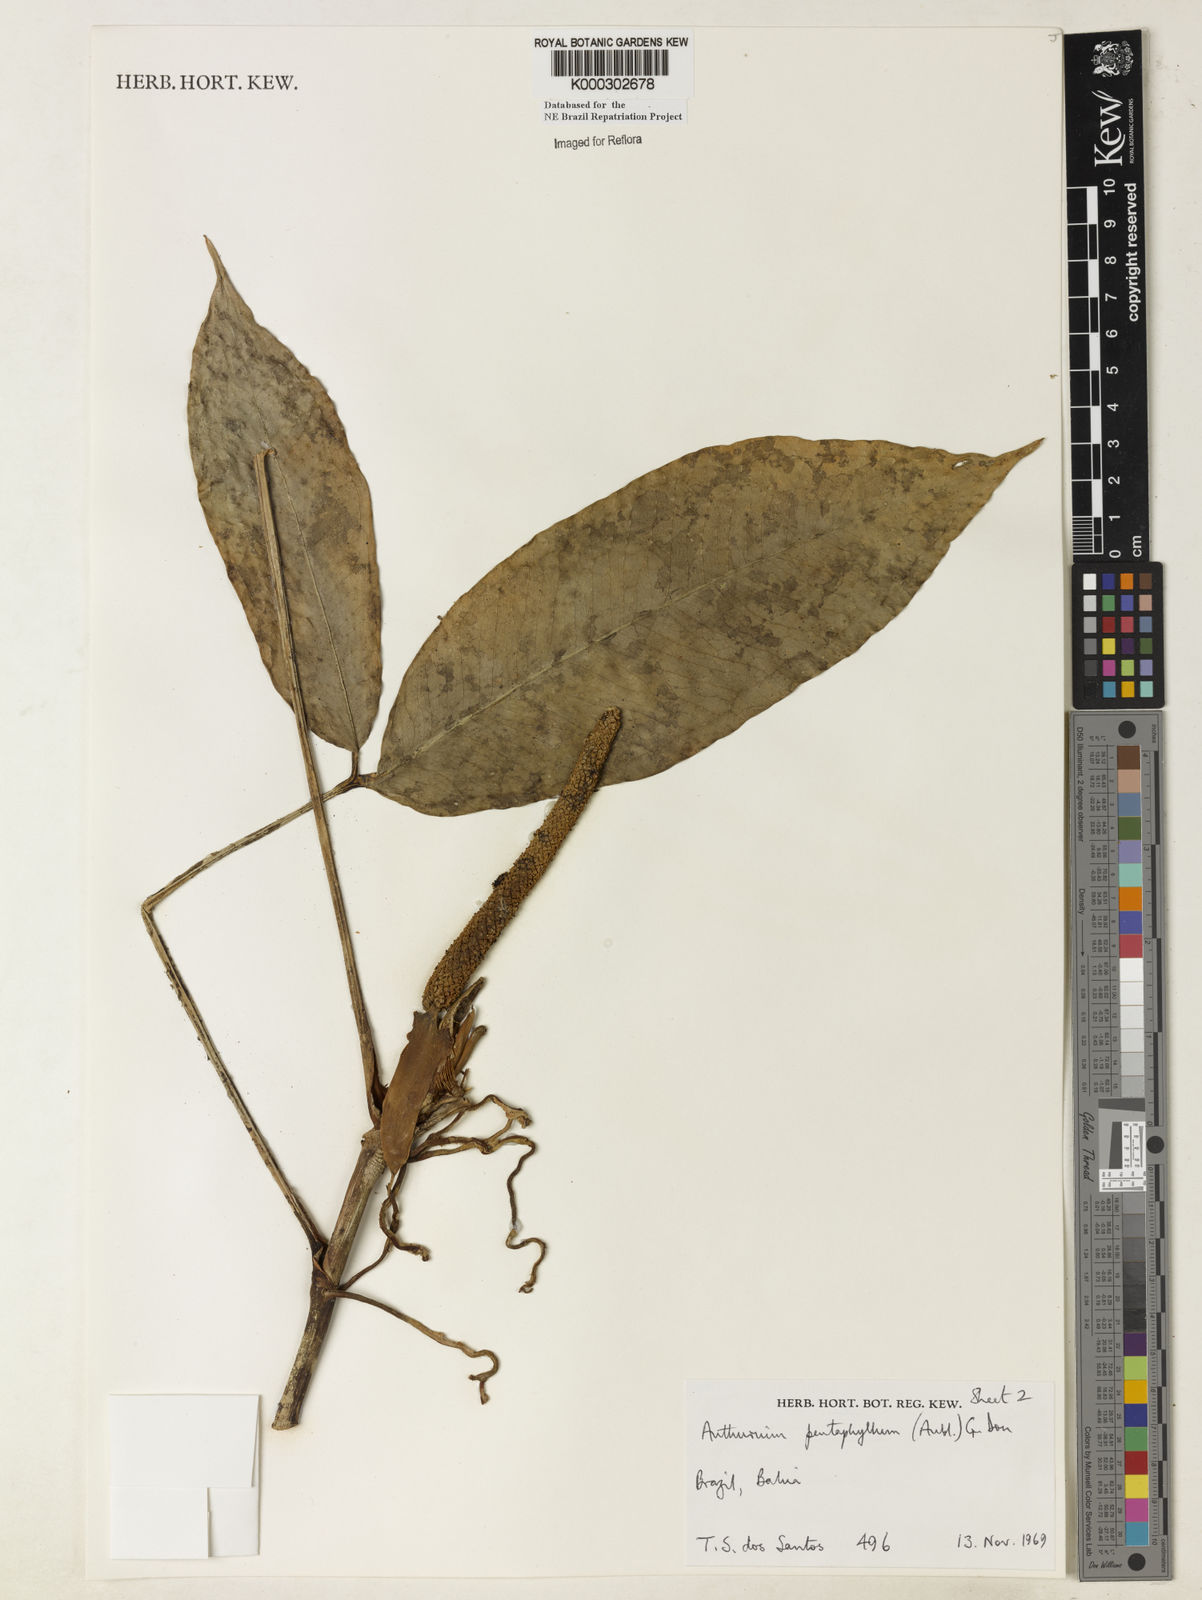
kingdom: Plantae
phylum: Tracheophyta
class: Liliopsida
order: Alismatales
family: Araceae
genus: Anthurium
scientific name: Anthurium pentaphyllum
